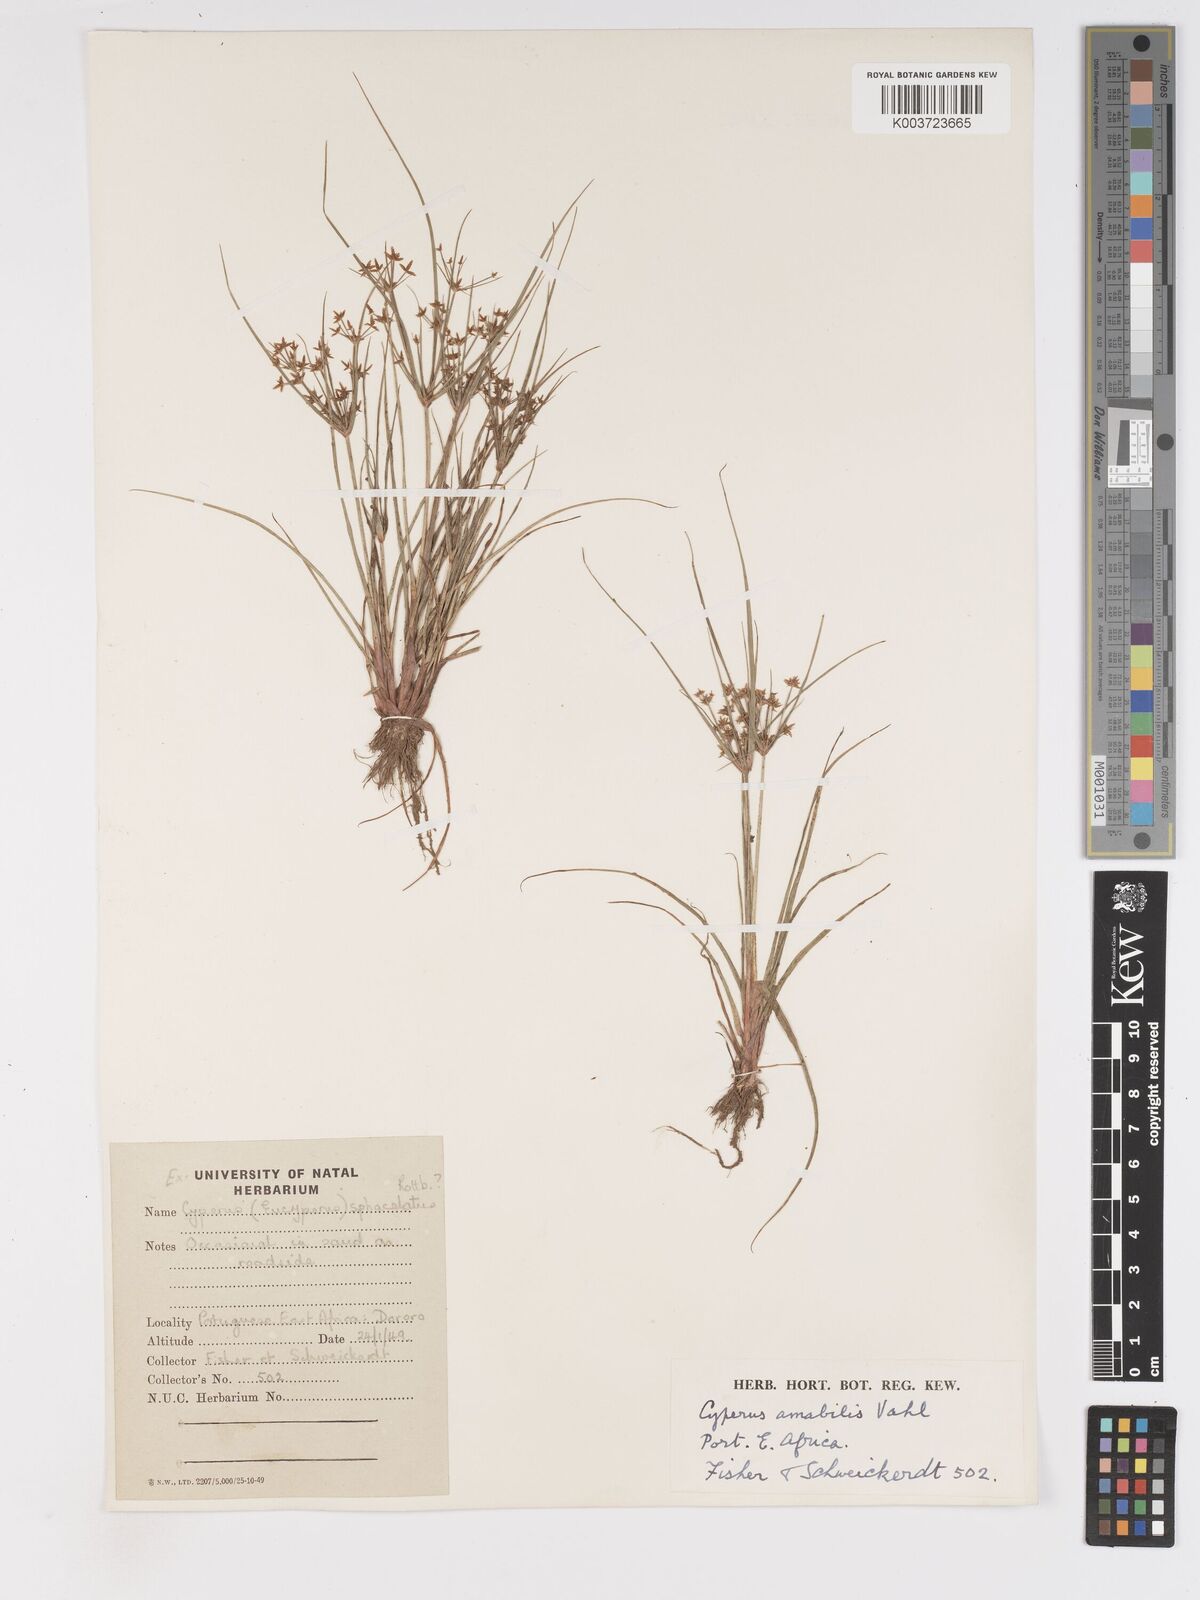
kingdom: Plantae
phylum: Tracheophyta
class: Liliopsida
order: Poales
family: Cyperaceae
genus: Cyperus
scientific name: Cyperus amabilis
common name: Foothill flat sedge
